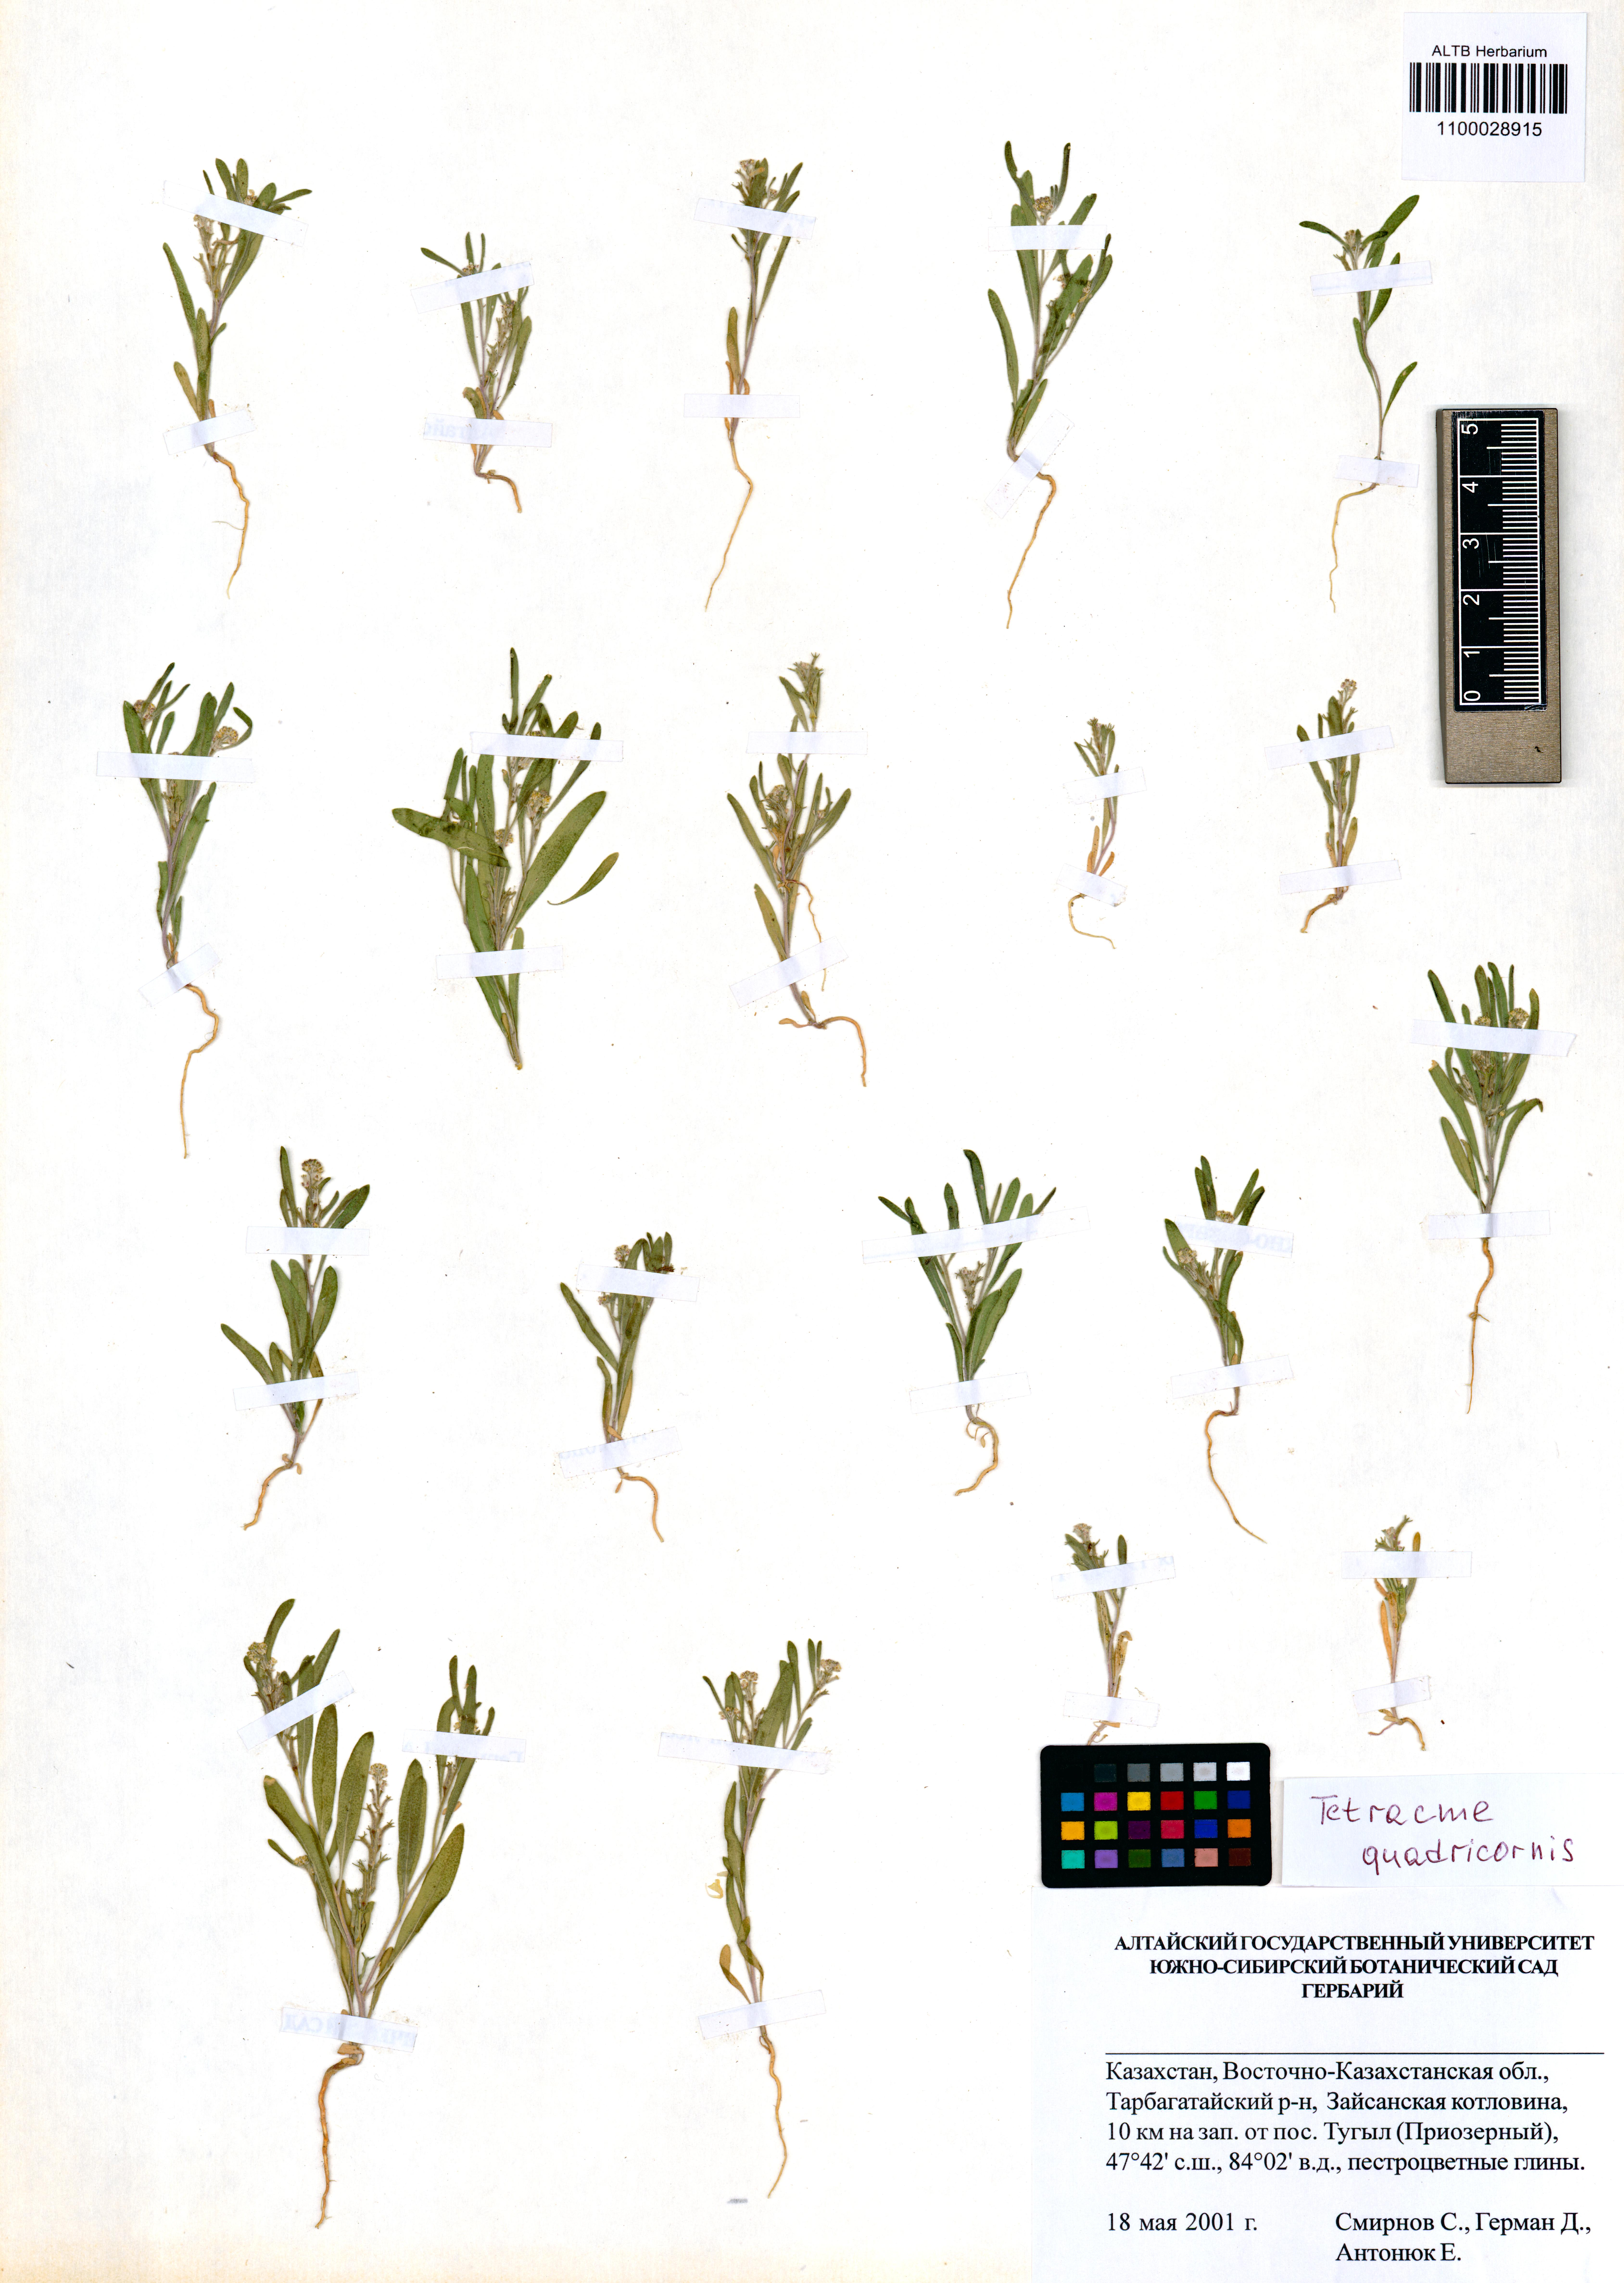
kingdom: Plantae
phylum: Tracheophyta
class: Magnoliopsida
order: Brassicales
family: Brassicaceae
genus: Tetracme
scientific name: Tetracme quadricornis
